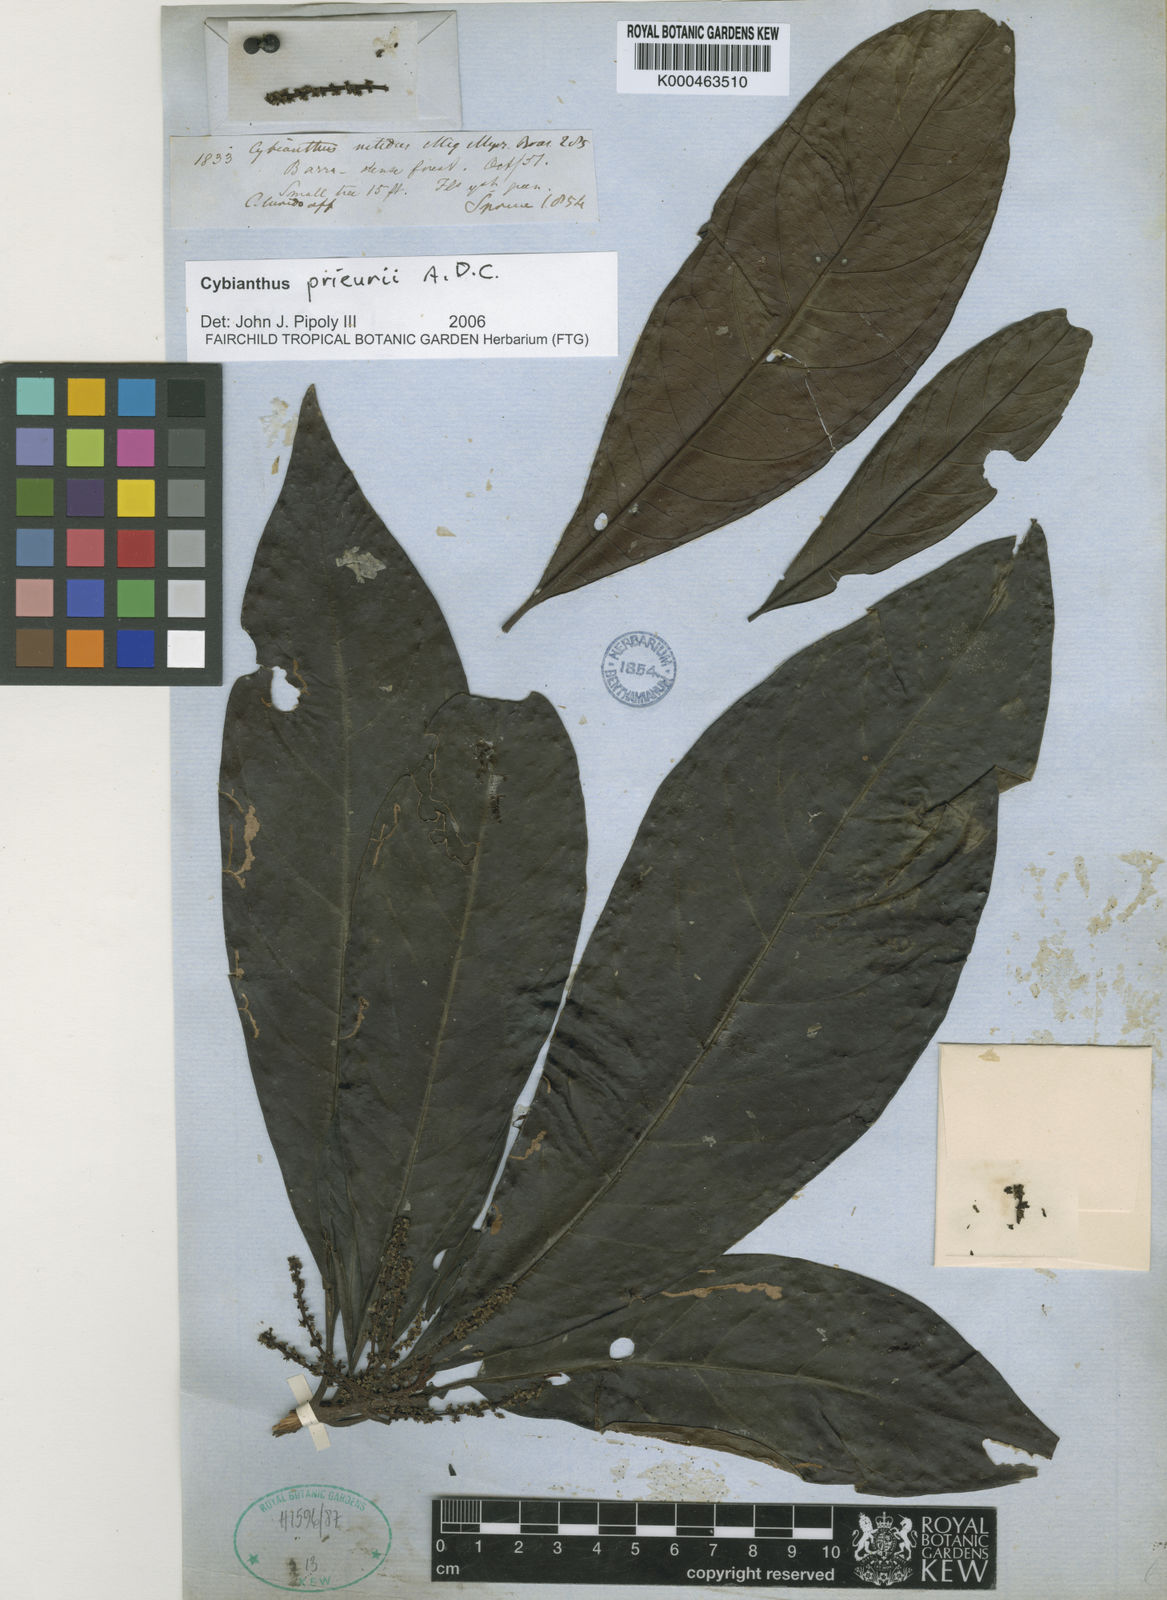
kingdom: Plantae
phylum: Tracheophyta
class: Magnoliopsida
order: Ericales
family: Primulaceae
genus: Cybianthus
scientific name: Cybianthus prieurii
